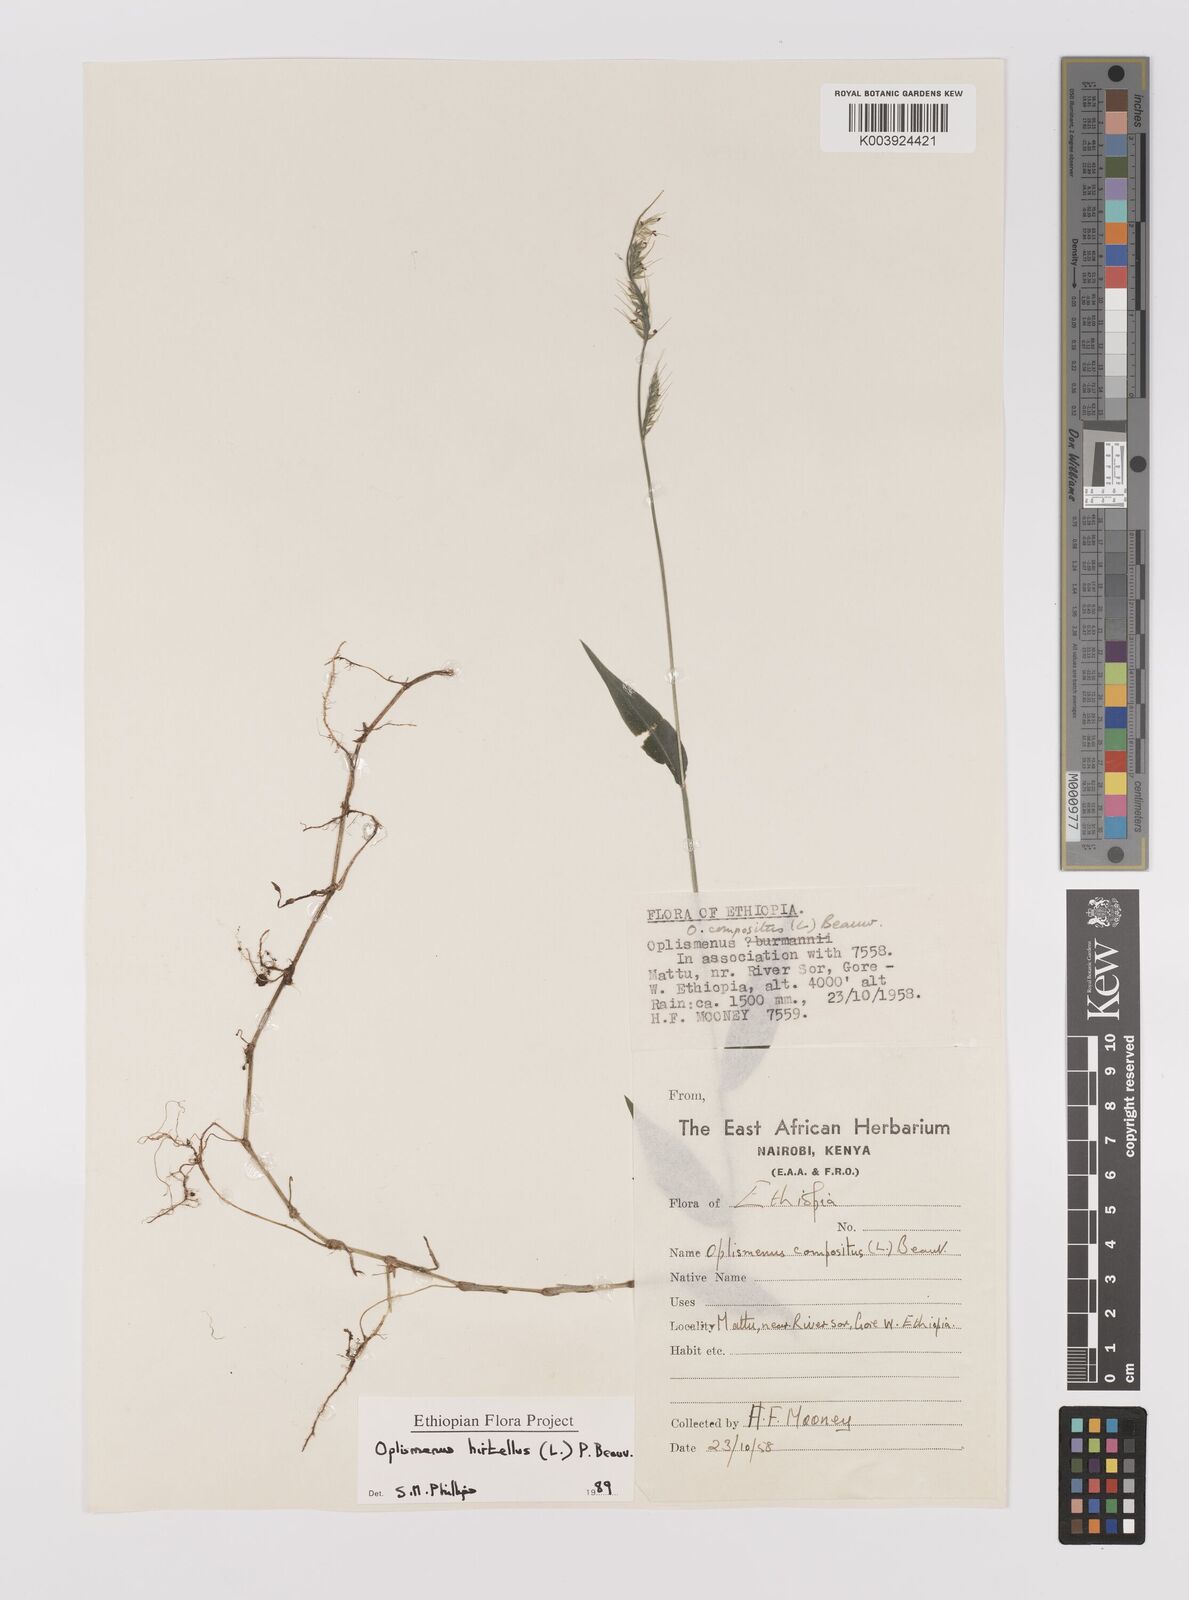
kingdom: Plantae
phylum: Tracheophyta
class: Liliopsida
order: Poales
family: Poaceae
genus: Oplismenus
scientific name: Oplismenus hirtellus
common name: Basketgrass
